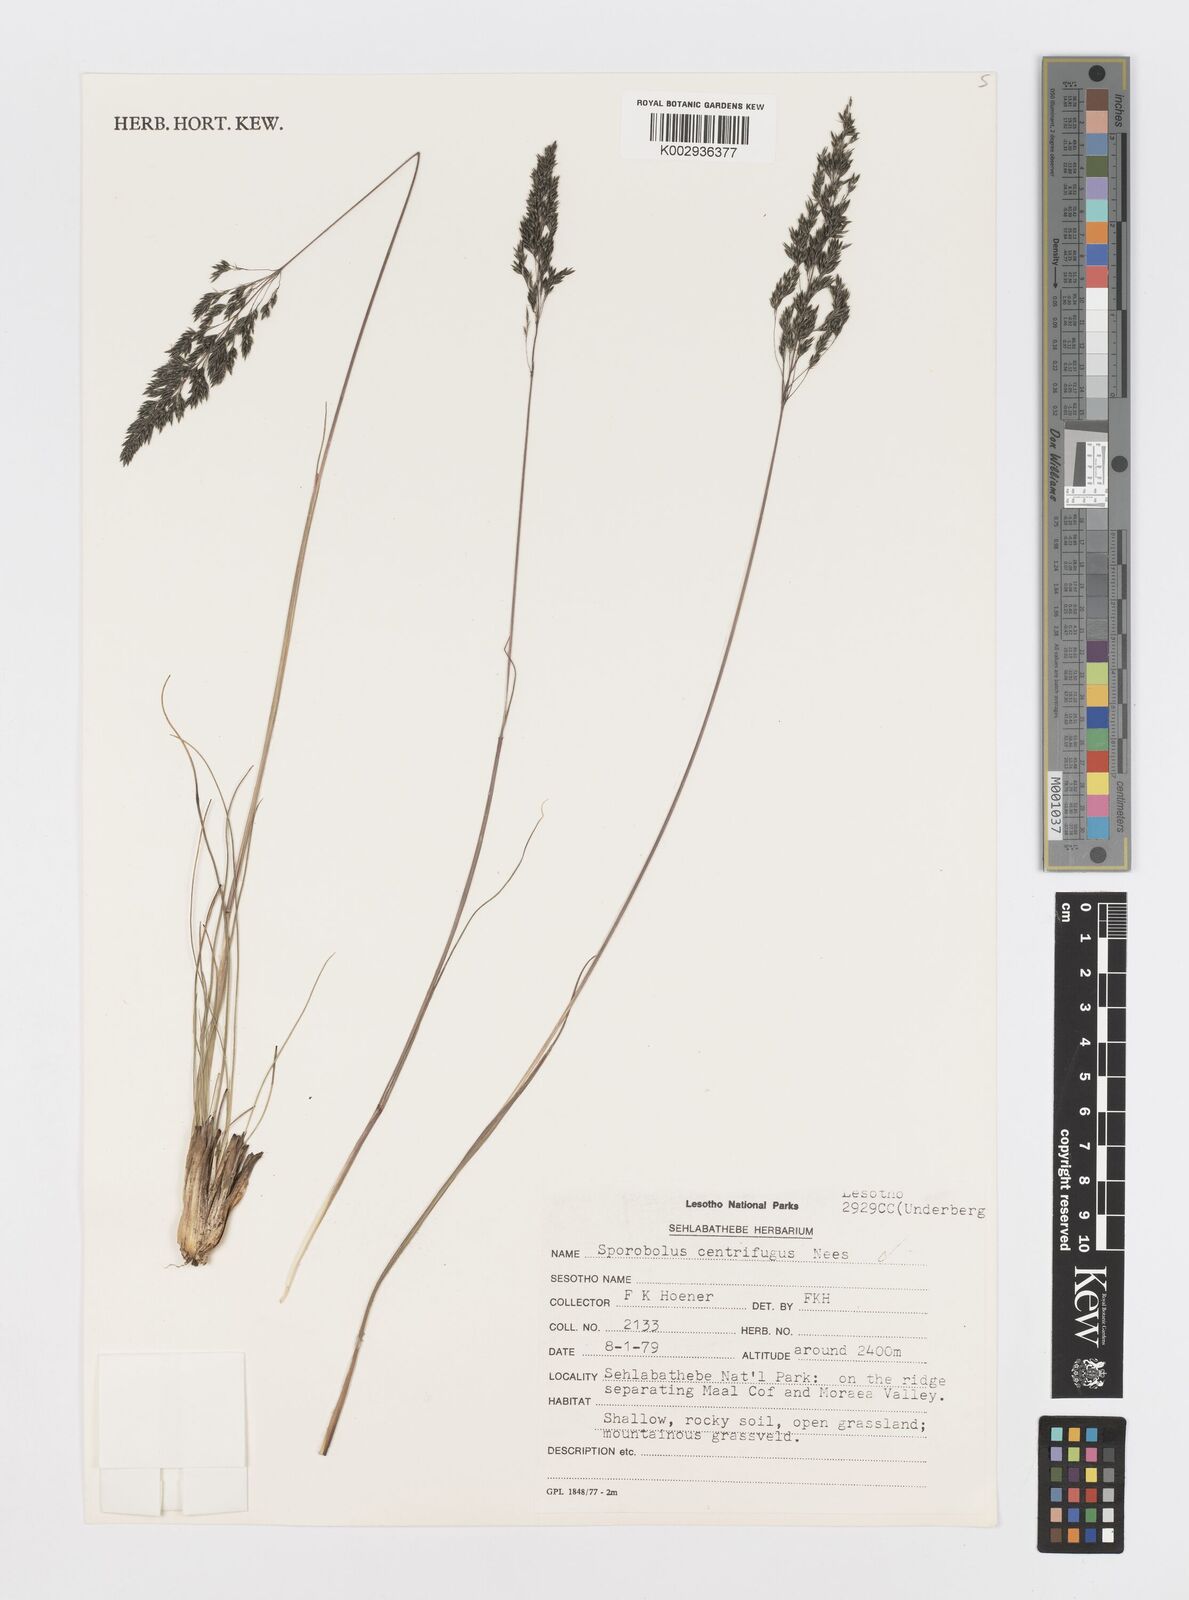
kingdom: Plantae
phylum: Tracheophyta
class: Liliopsida
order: Poales
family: Poaceae
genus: Sporobolus
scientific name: Sporobolus centrifugus
